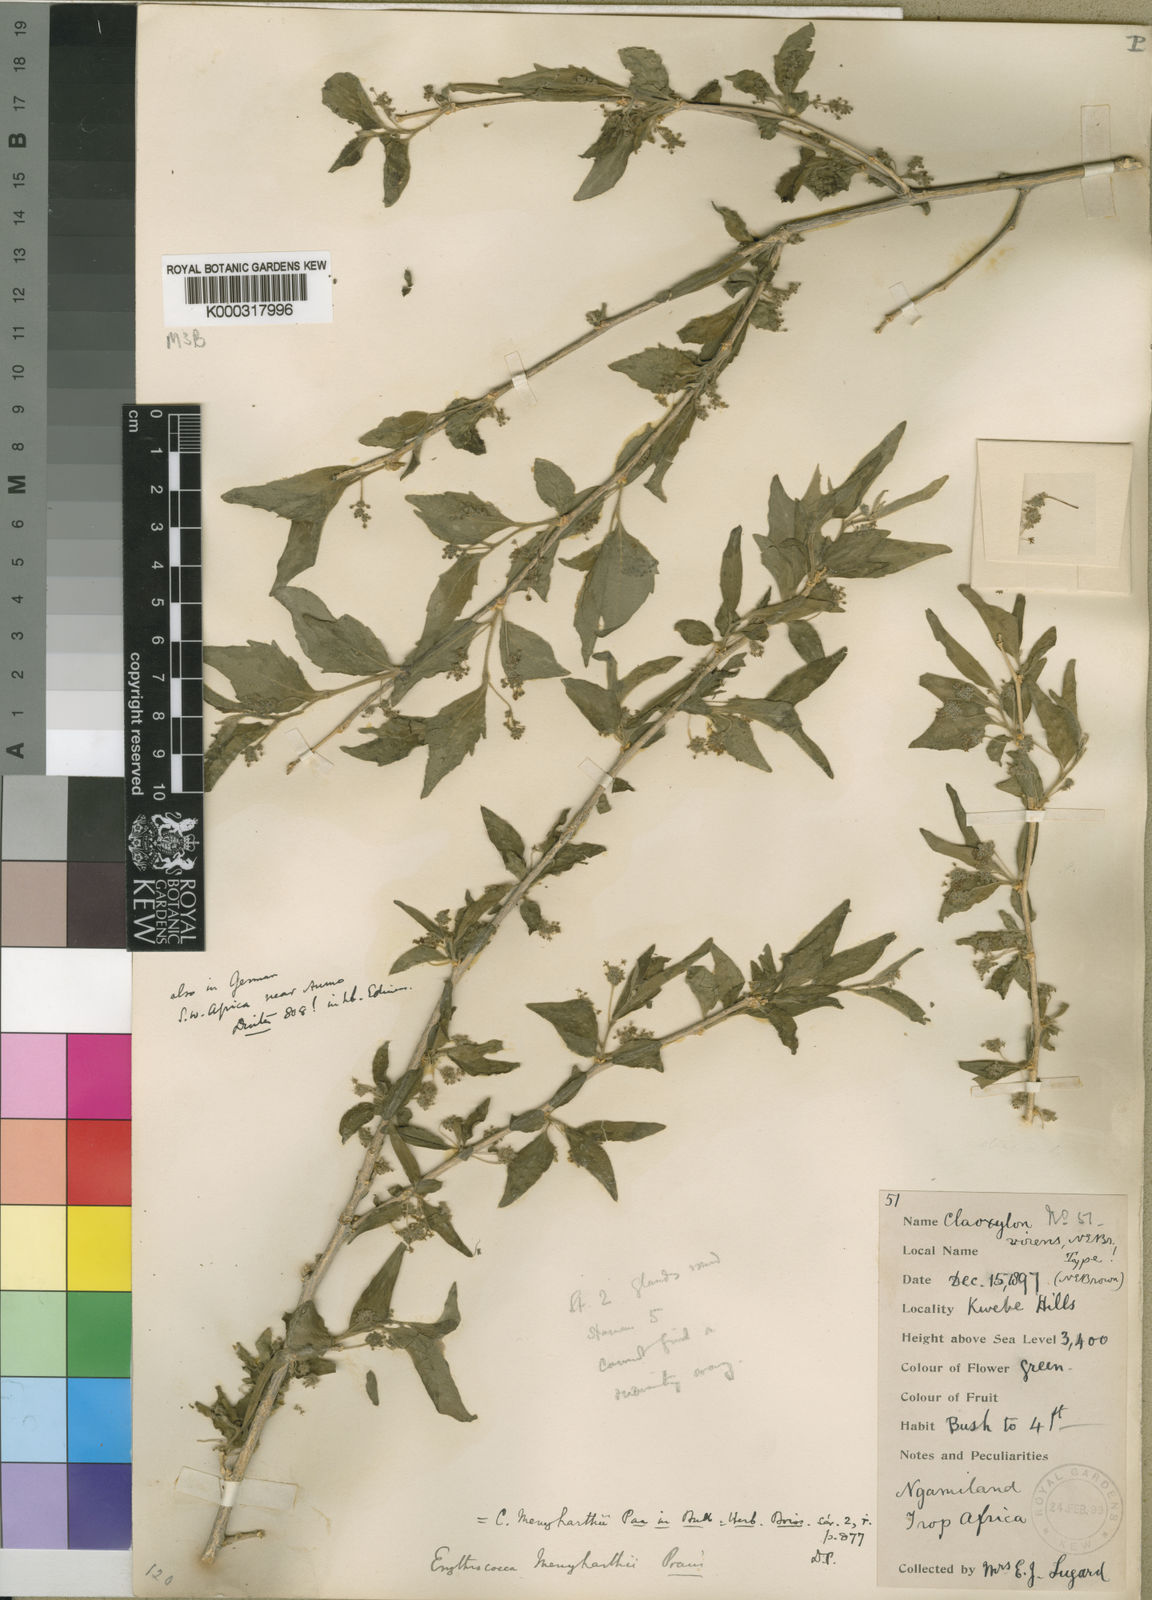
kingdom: Plantae
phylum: Tracheophyta
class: Magnoliopsida
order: Malpighiales
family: Euphorbiaceae
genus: Erythrococca
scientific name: Erythrococca menyharthii
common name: Northern red-berry
